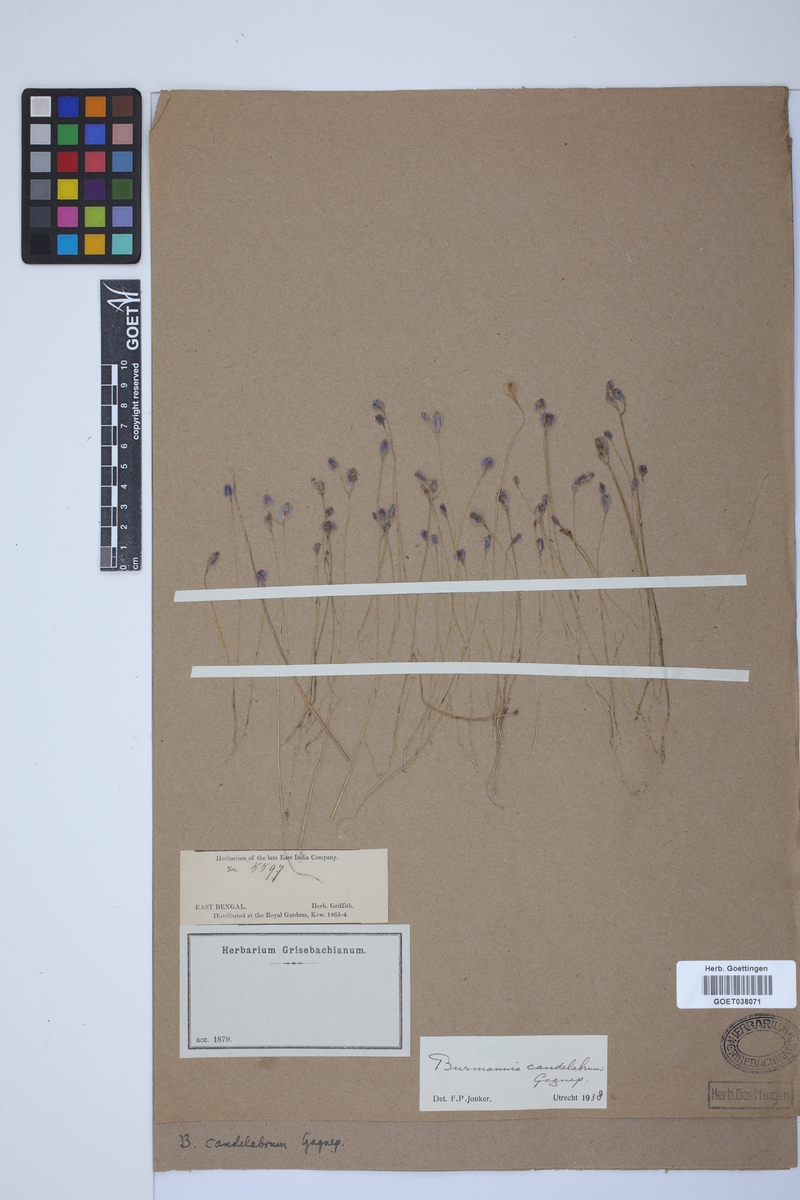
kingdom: Plantae
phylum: Tracheophyta
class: Liliopsida
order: Dioscoreales
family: Burmanniaceae
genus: Burmannia
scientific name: Burmannia candelabrum
